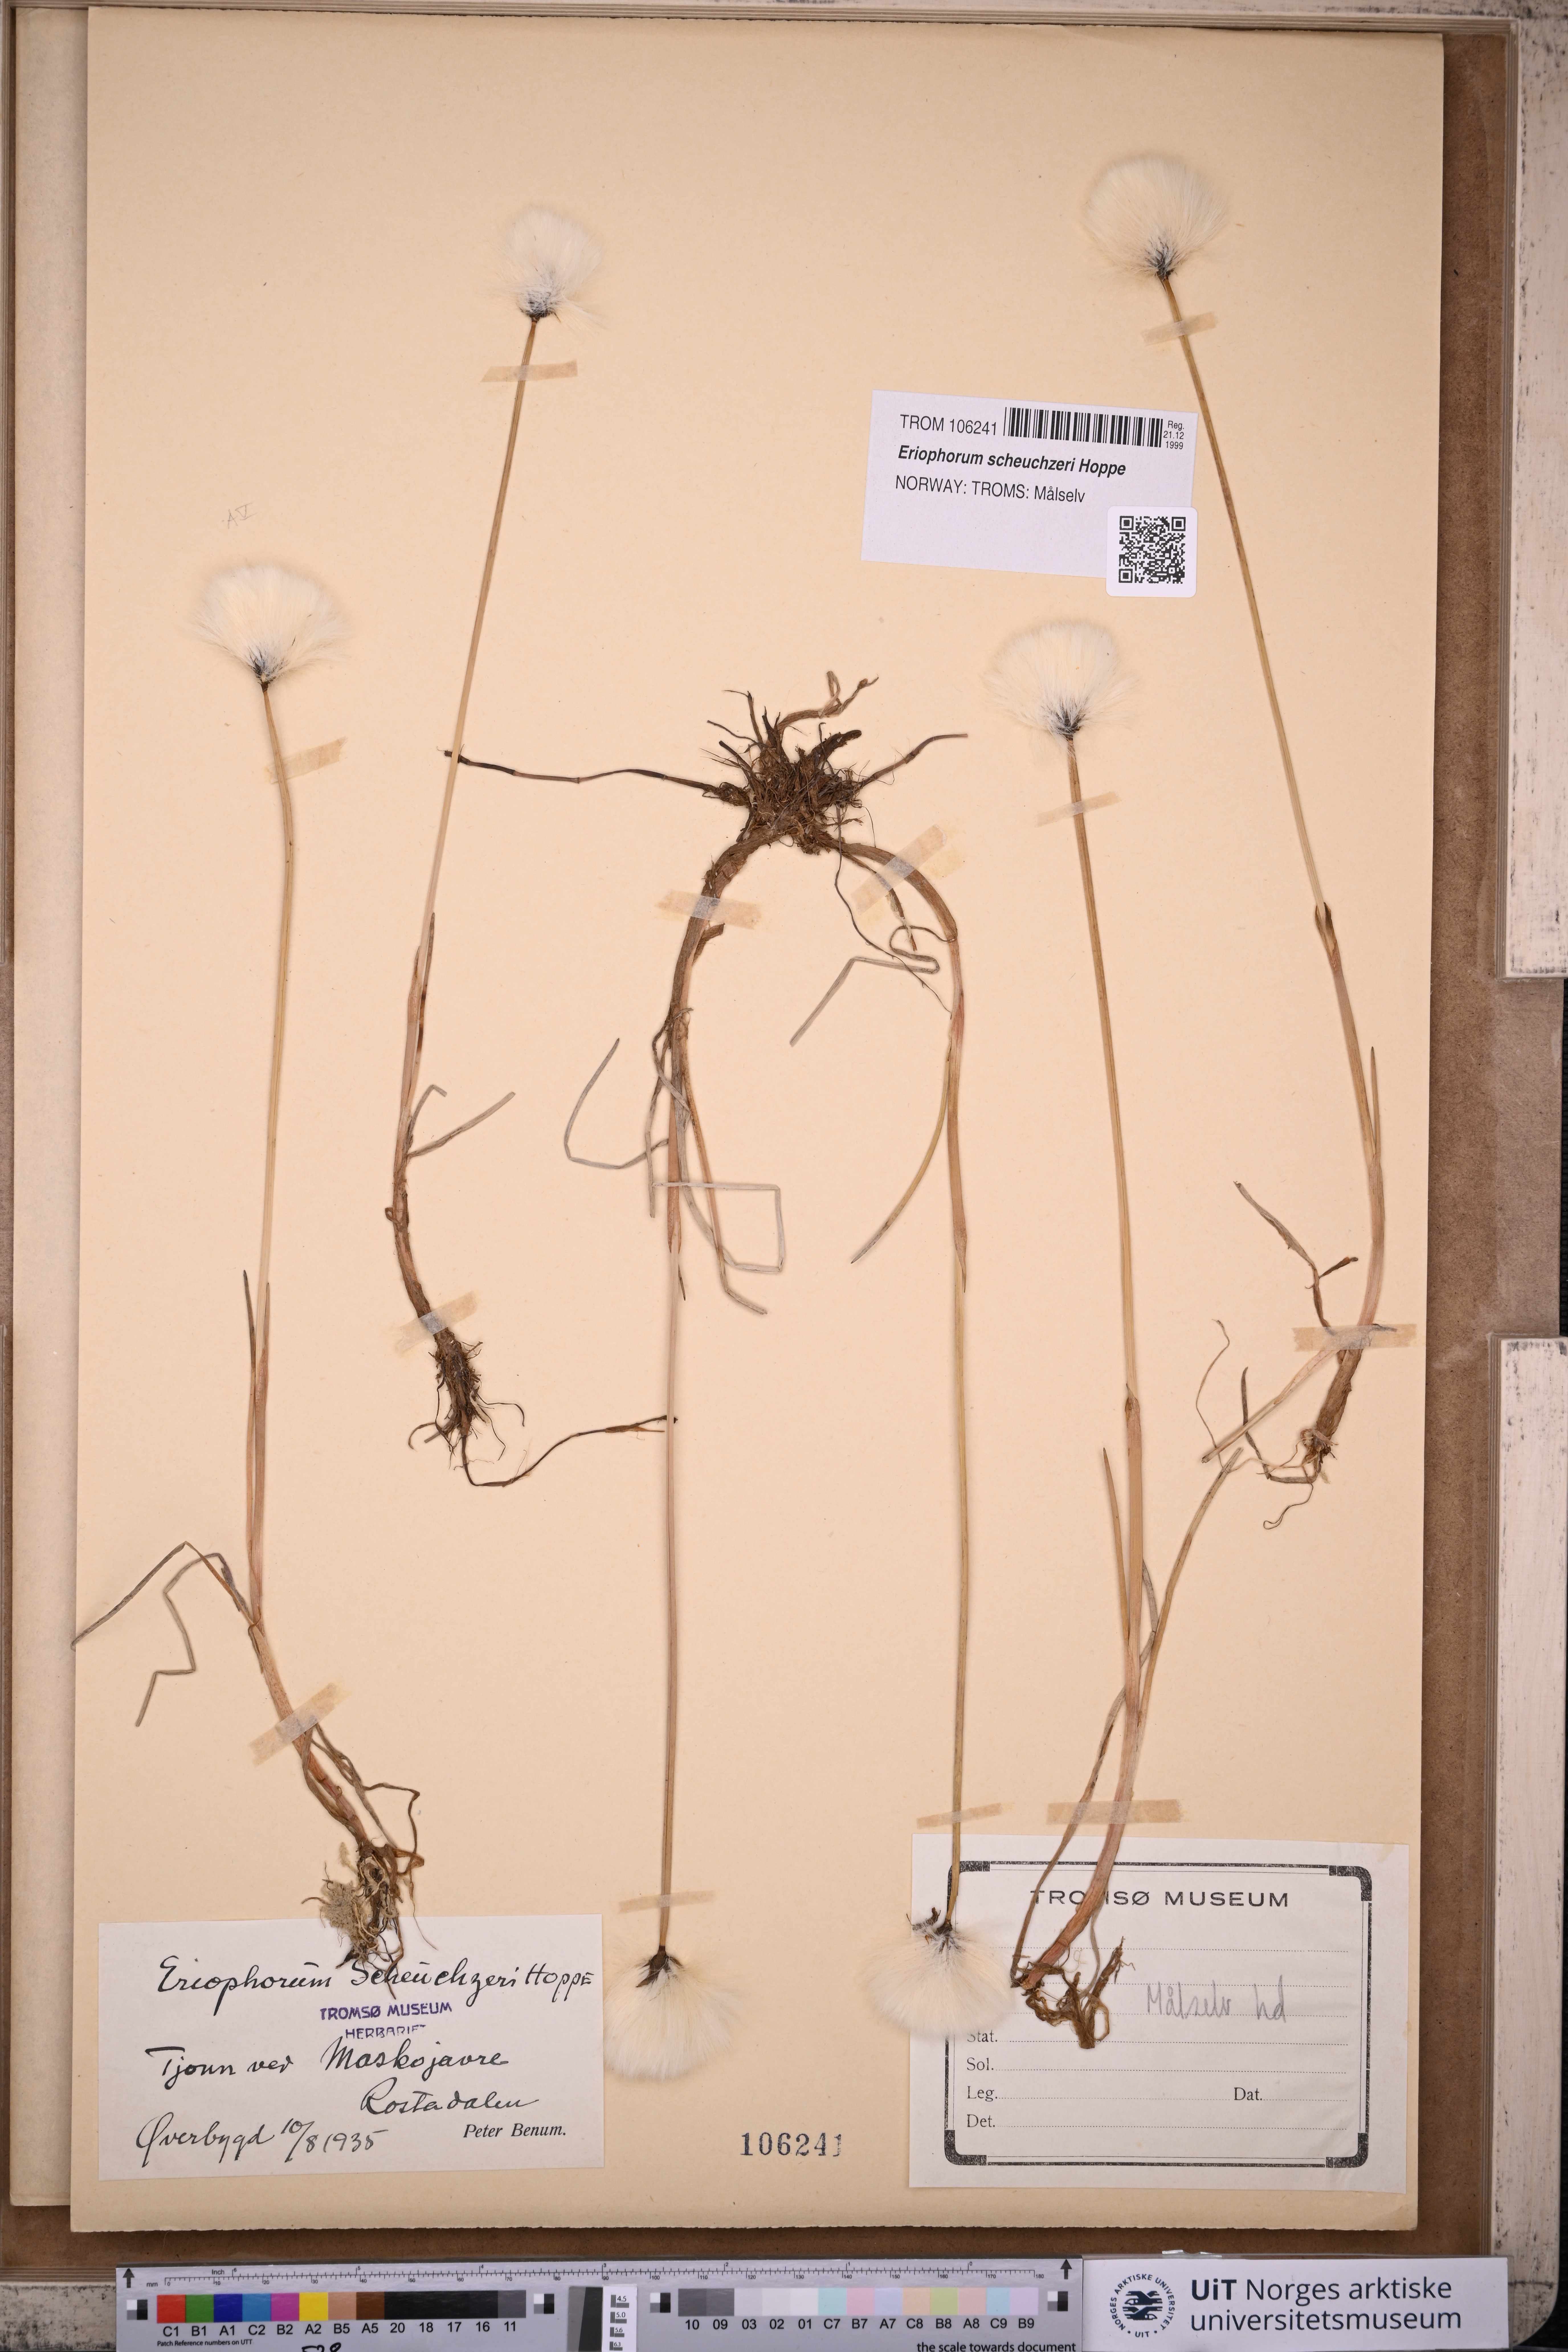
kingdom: Plantae
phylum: Tracheophyta
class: Liliopsida
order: Poales
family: Cyperaceae
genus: Eriophorum
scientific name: Eriophorum scheuchzeri
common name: Scheuchzer's cottongrass
